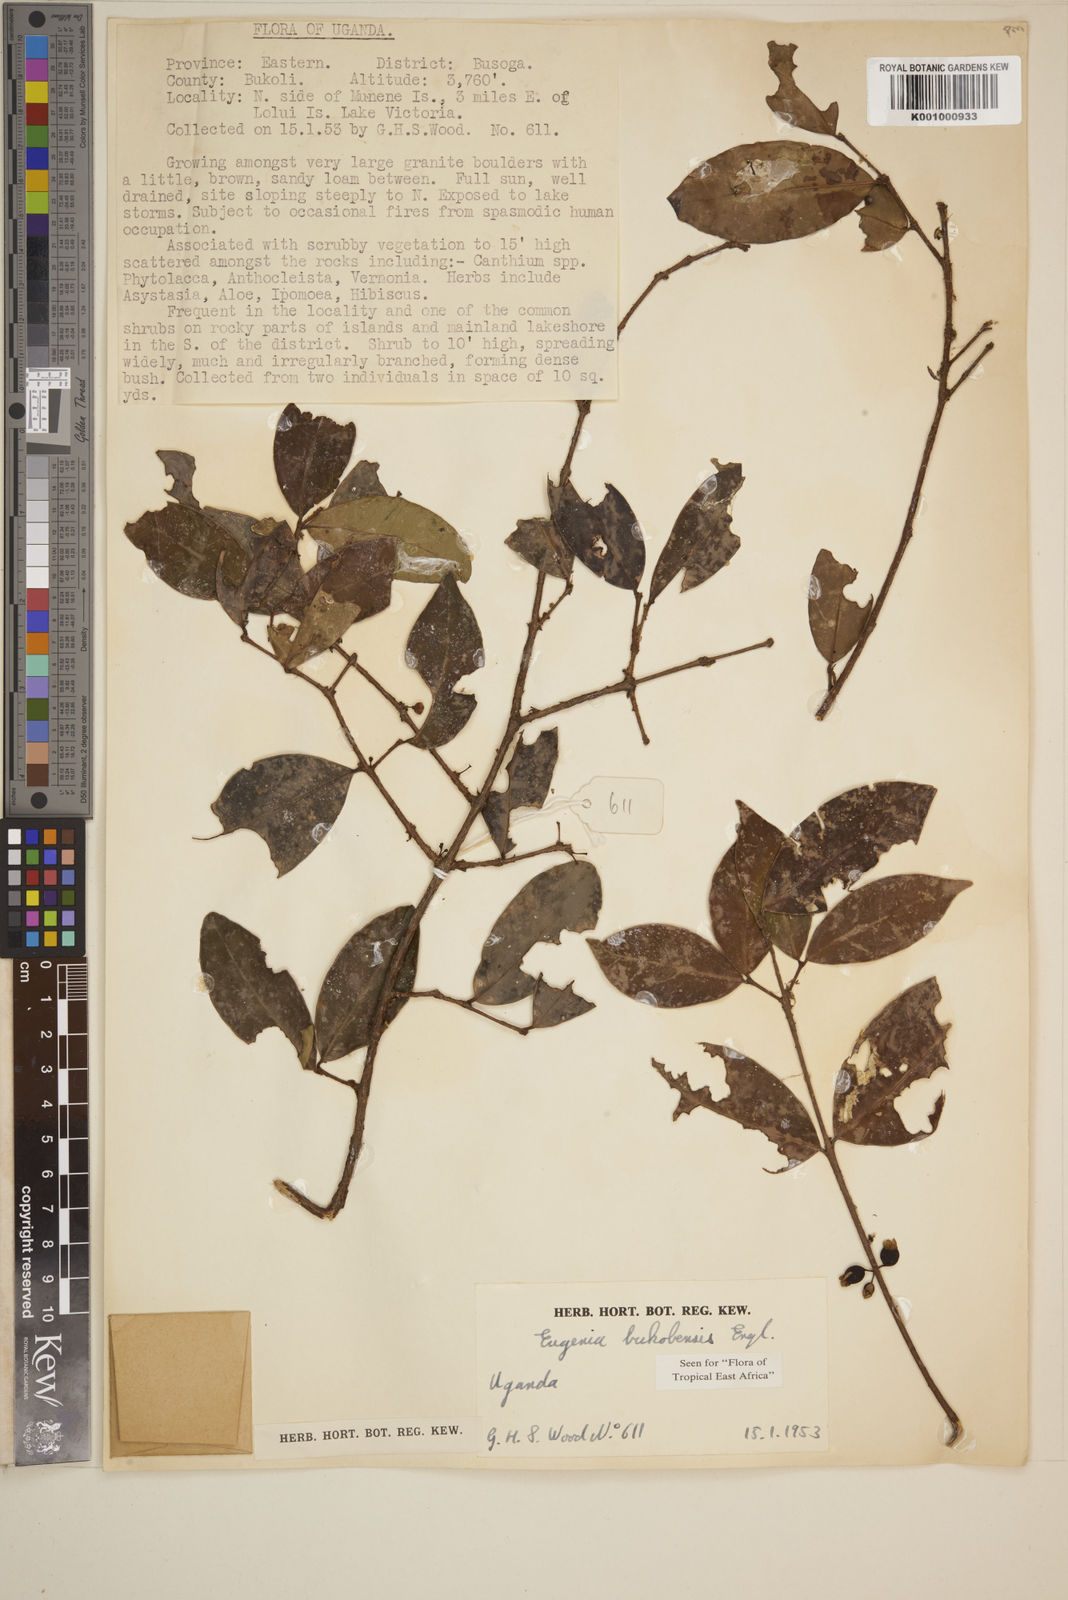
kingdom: Plantae
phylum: Tracheophyta
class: Magnoliopsida
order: Myrtales
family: Myrtaceae
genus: Eugenia
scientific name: Eugenia bukobensis
